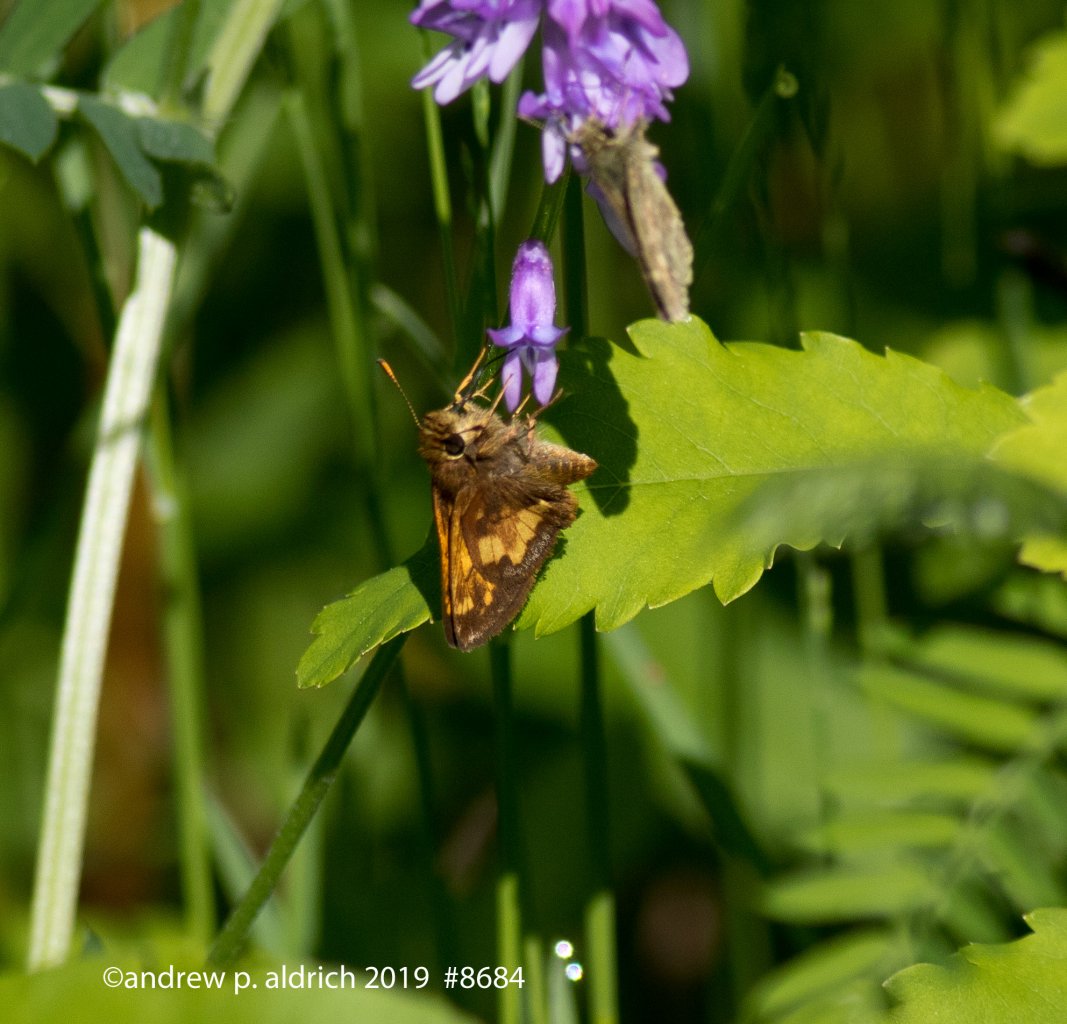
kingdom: Animalia
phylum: Arthropoda
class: Insecta
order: Lepidoptera
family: Hesperiidae
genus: Mastor
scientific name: Mastor hegon
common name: Pepper and Salt Skipper
